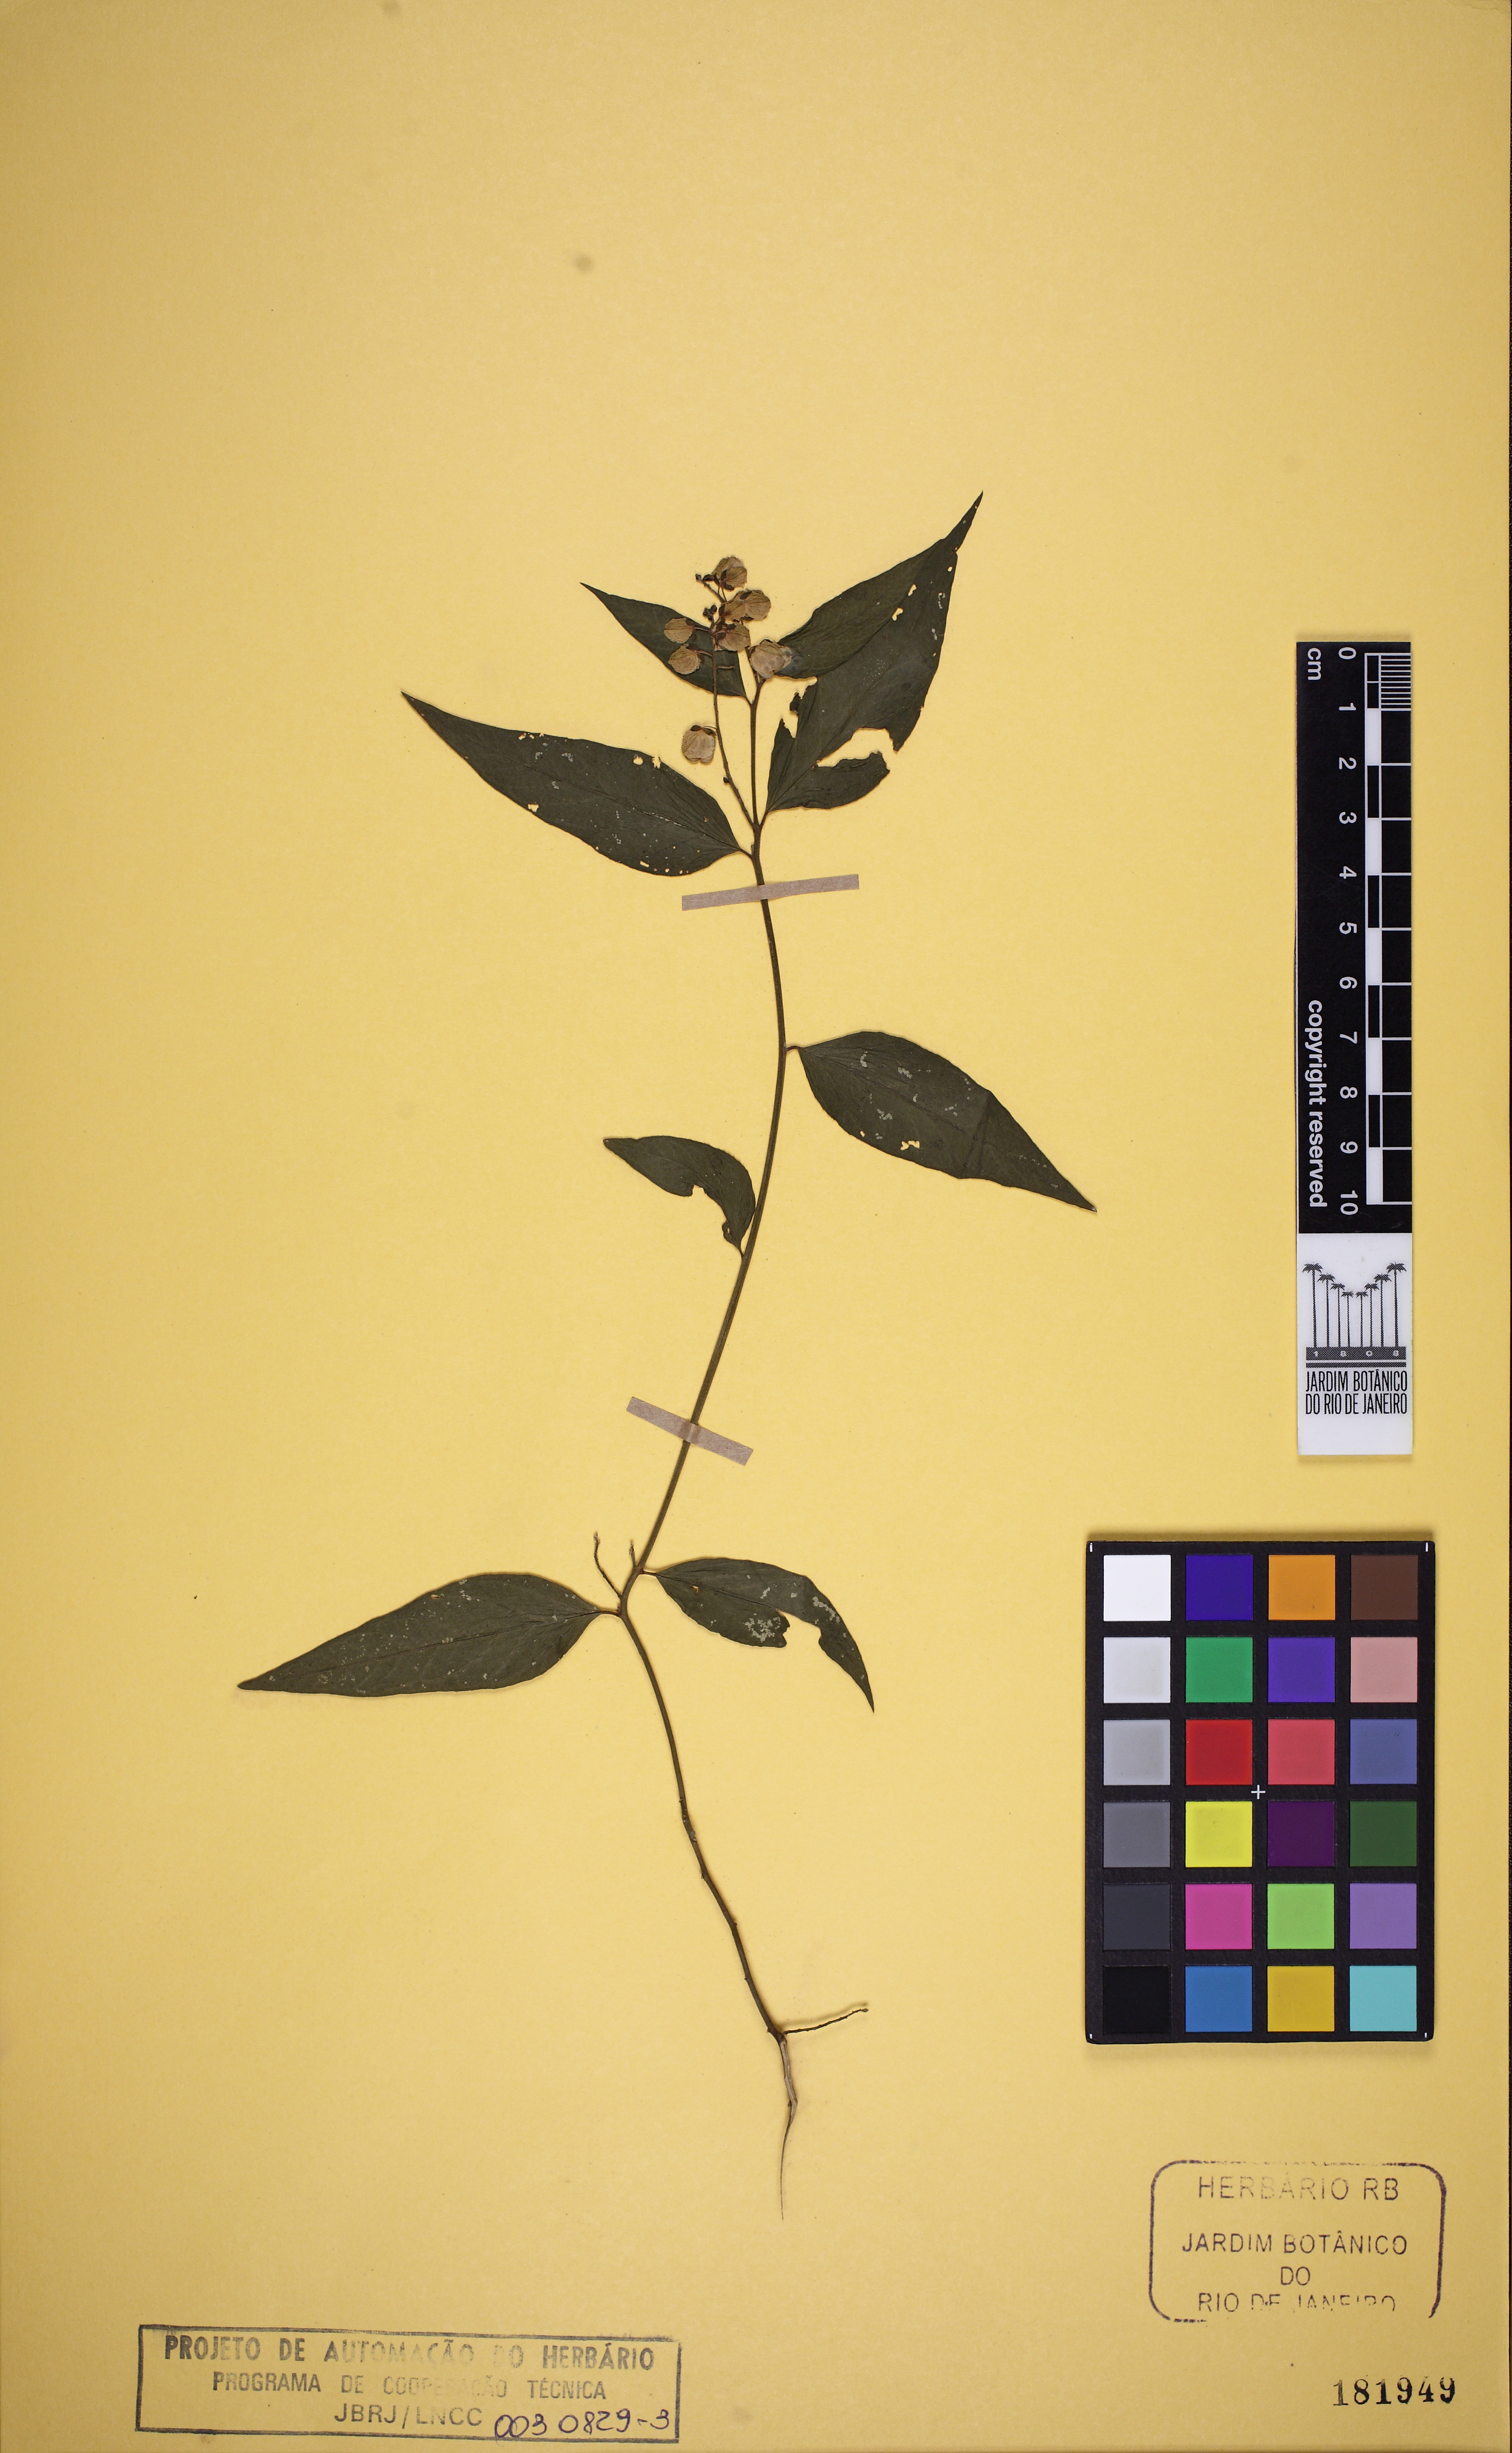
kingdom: Plantae
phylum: Tracheophyta
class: Magnoliopsida
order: Fabales
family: Polygalaceae
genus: Asemeia
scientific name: Asemeia acuminata
